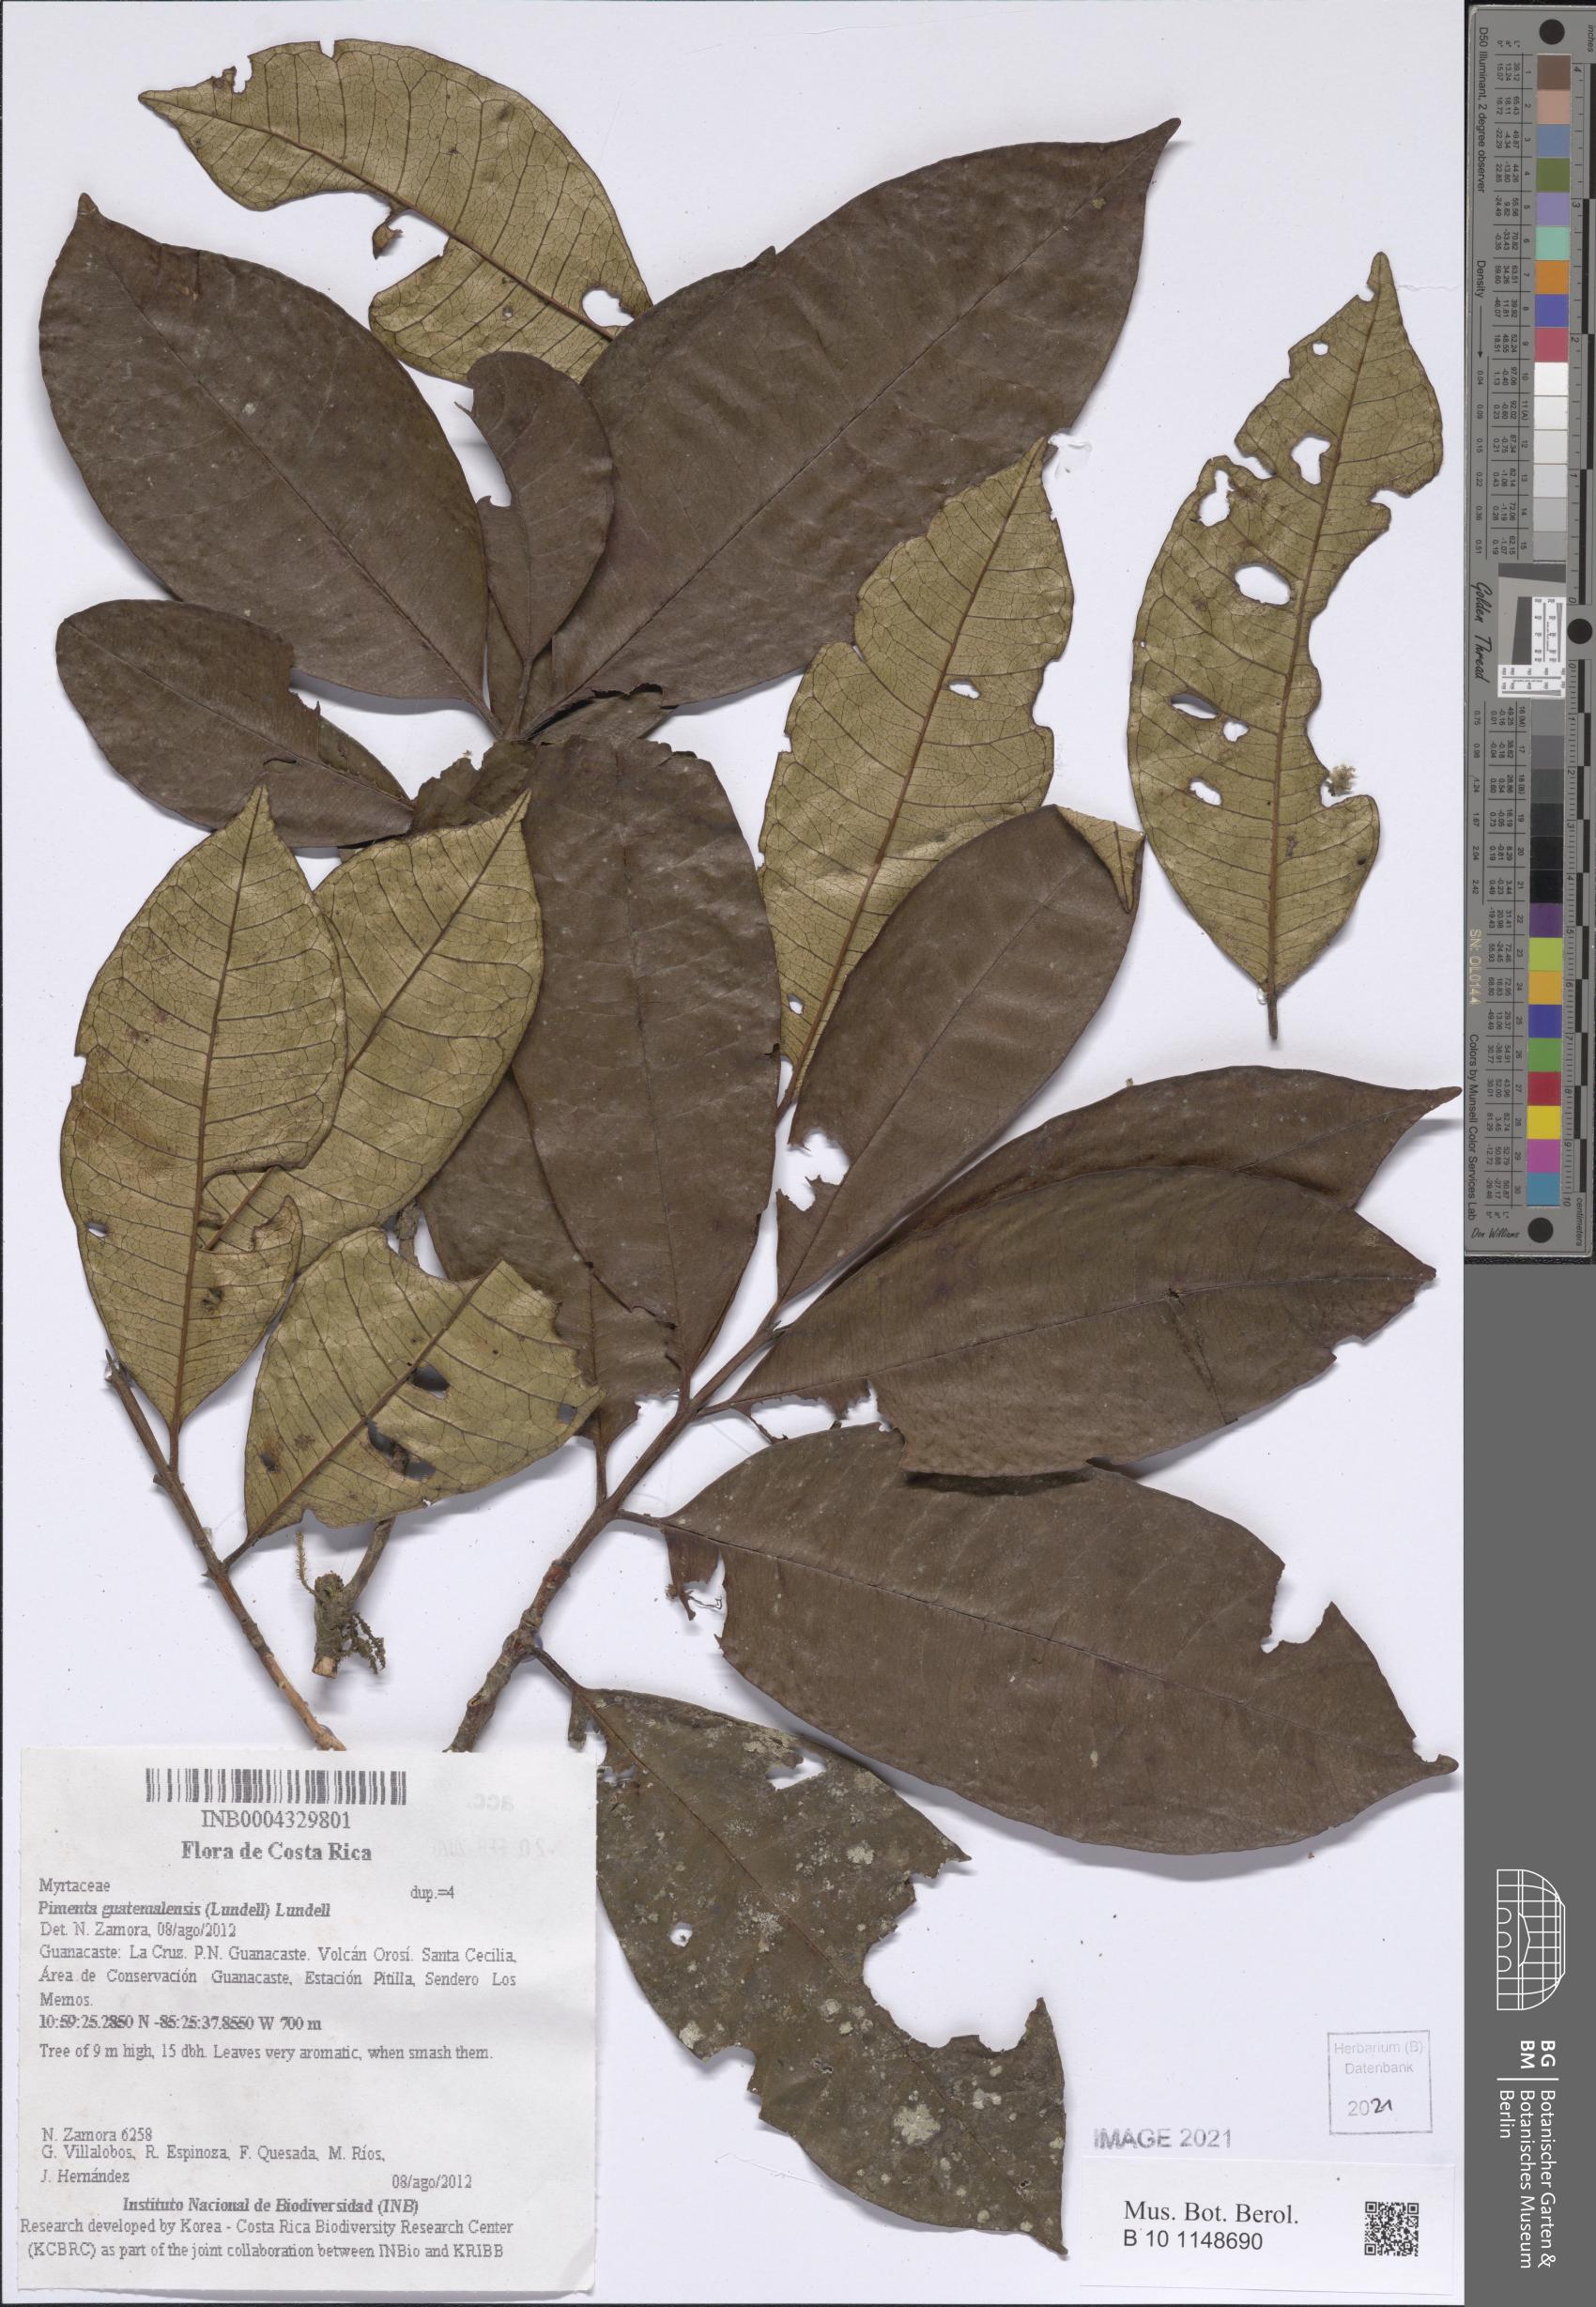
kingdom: Plantae
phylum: Tracheophyta
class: Magnoliopsida
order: Myrtales
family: Myrtaceae
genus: Pimenta
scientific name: Pimenta guatemalensis
